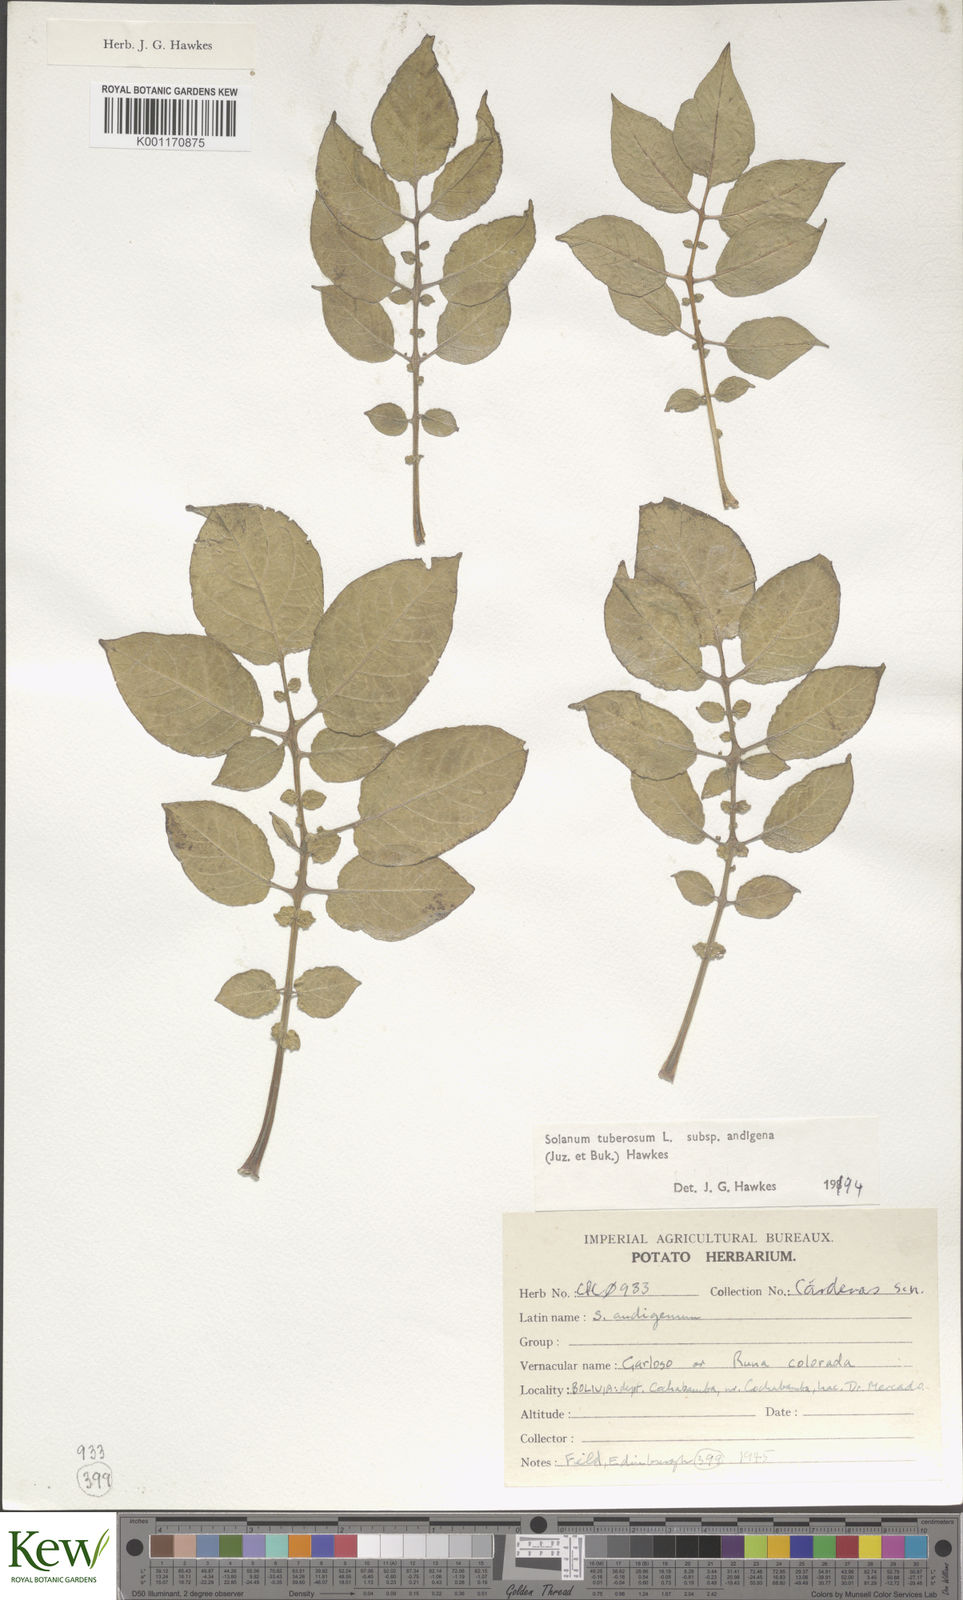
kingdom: Plantae
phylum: Tracheophyta
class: Magnoliopsida
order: Solanales
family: Solanaceae
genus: Solanum
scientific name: Solanum tuberosum
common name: Potato
